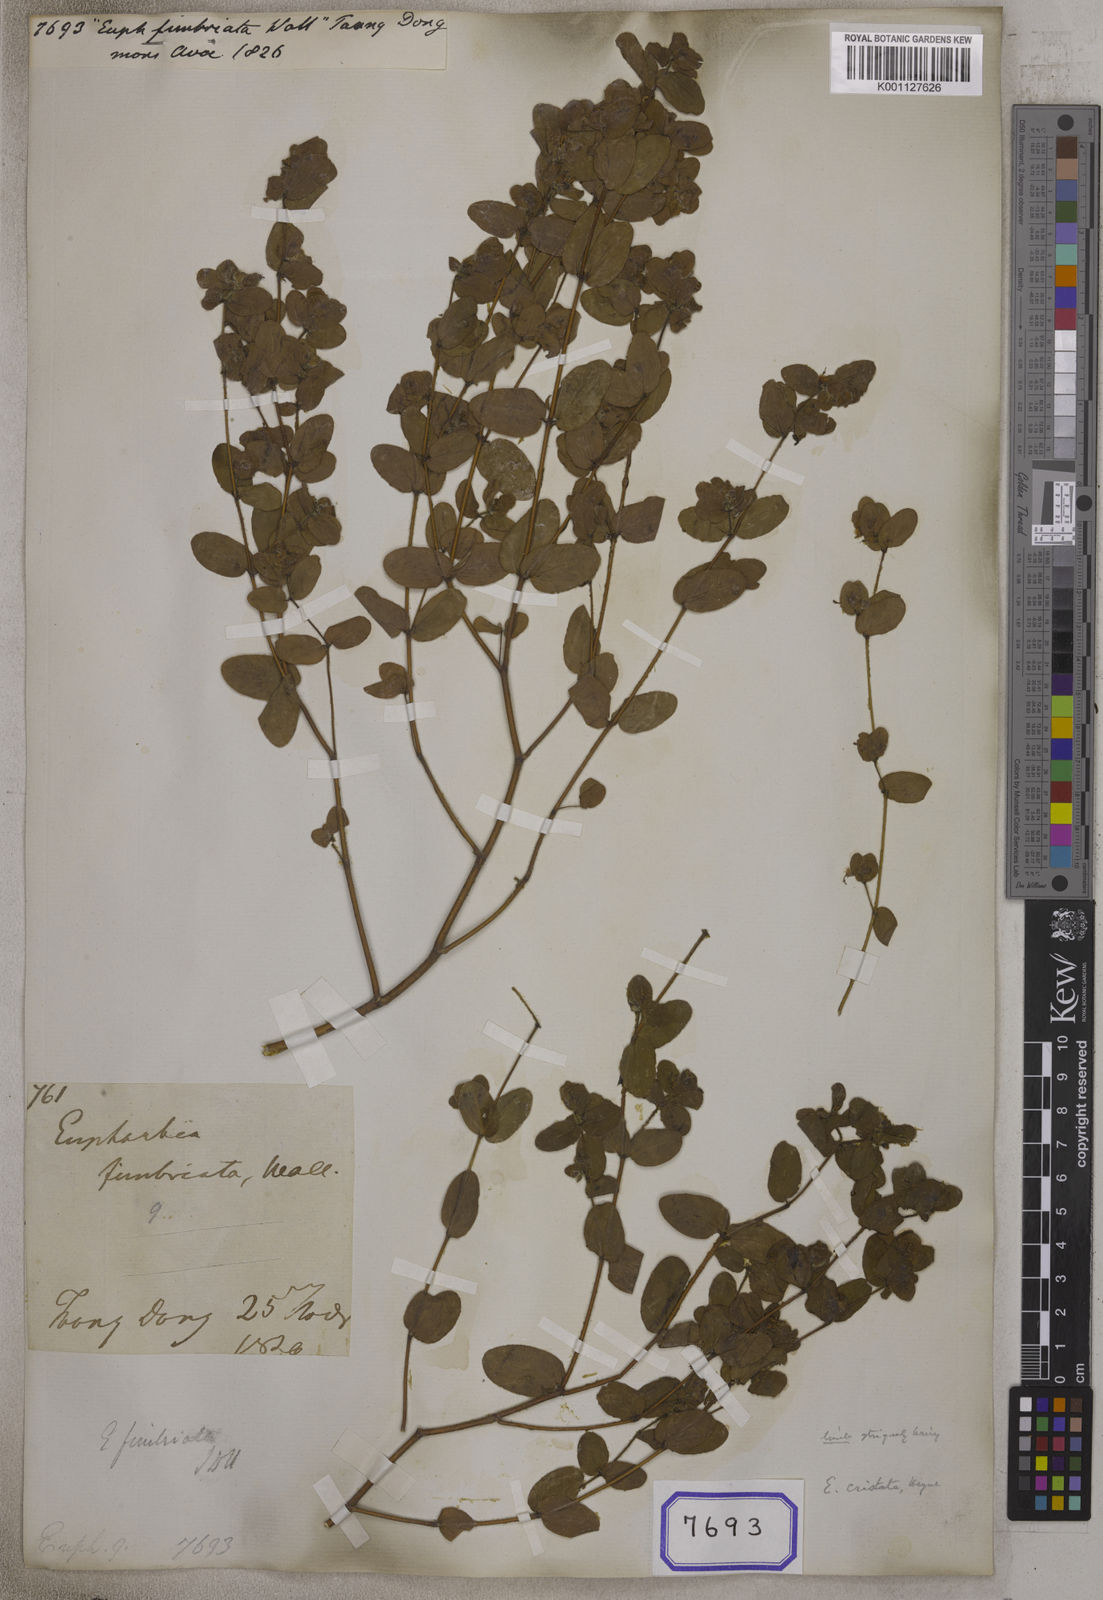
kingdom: Plantae
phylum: Tracheophyta
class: Magnoliopsida
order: Malpighiales
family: Euphorbiaceae
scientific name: Euphorbiaceae
